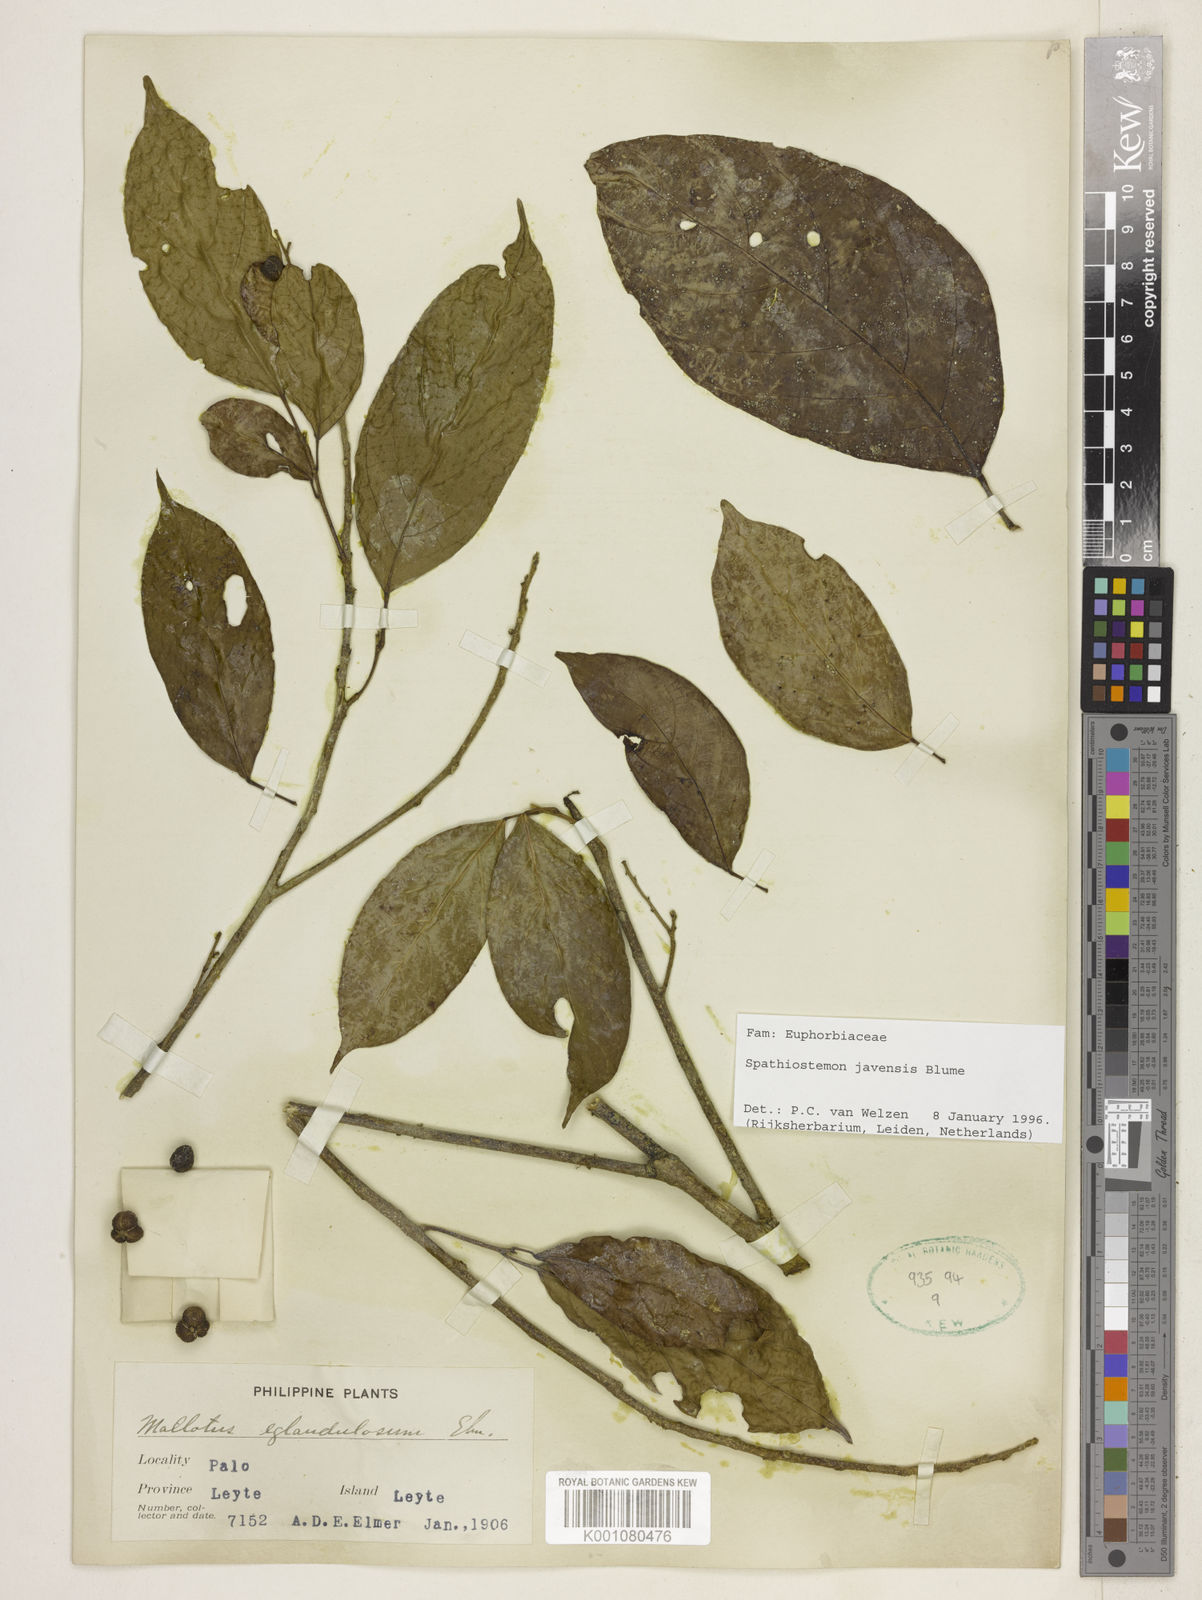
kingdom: Plantae
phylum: Tracheophyta
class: Magnoliopsida
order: Malpighiales
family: Euphorbiaceae
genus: Spathiostemon
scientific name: Spathiostemon javensis
